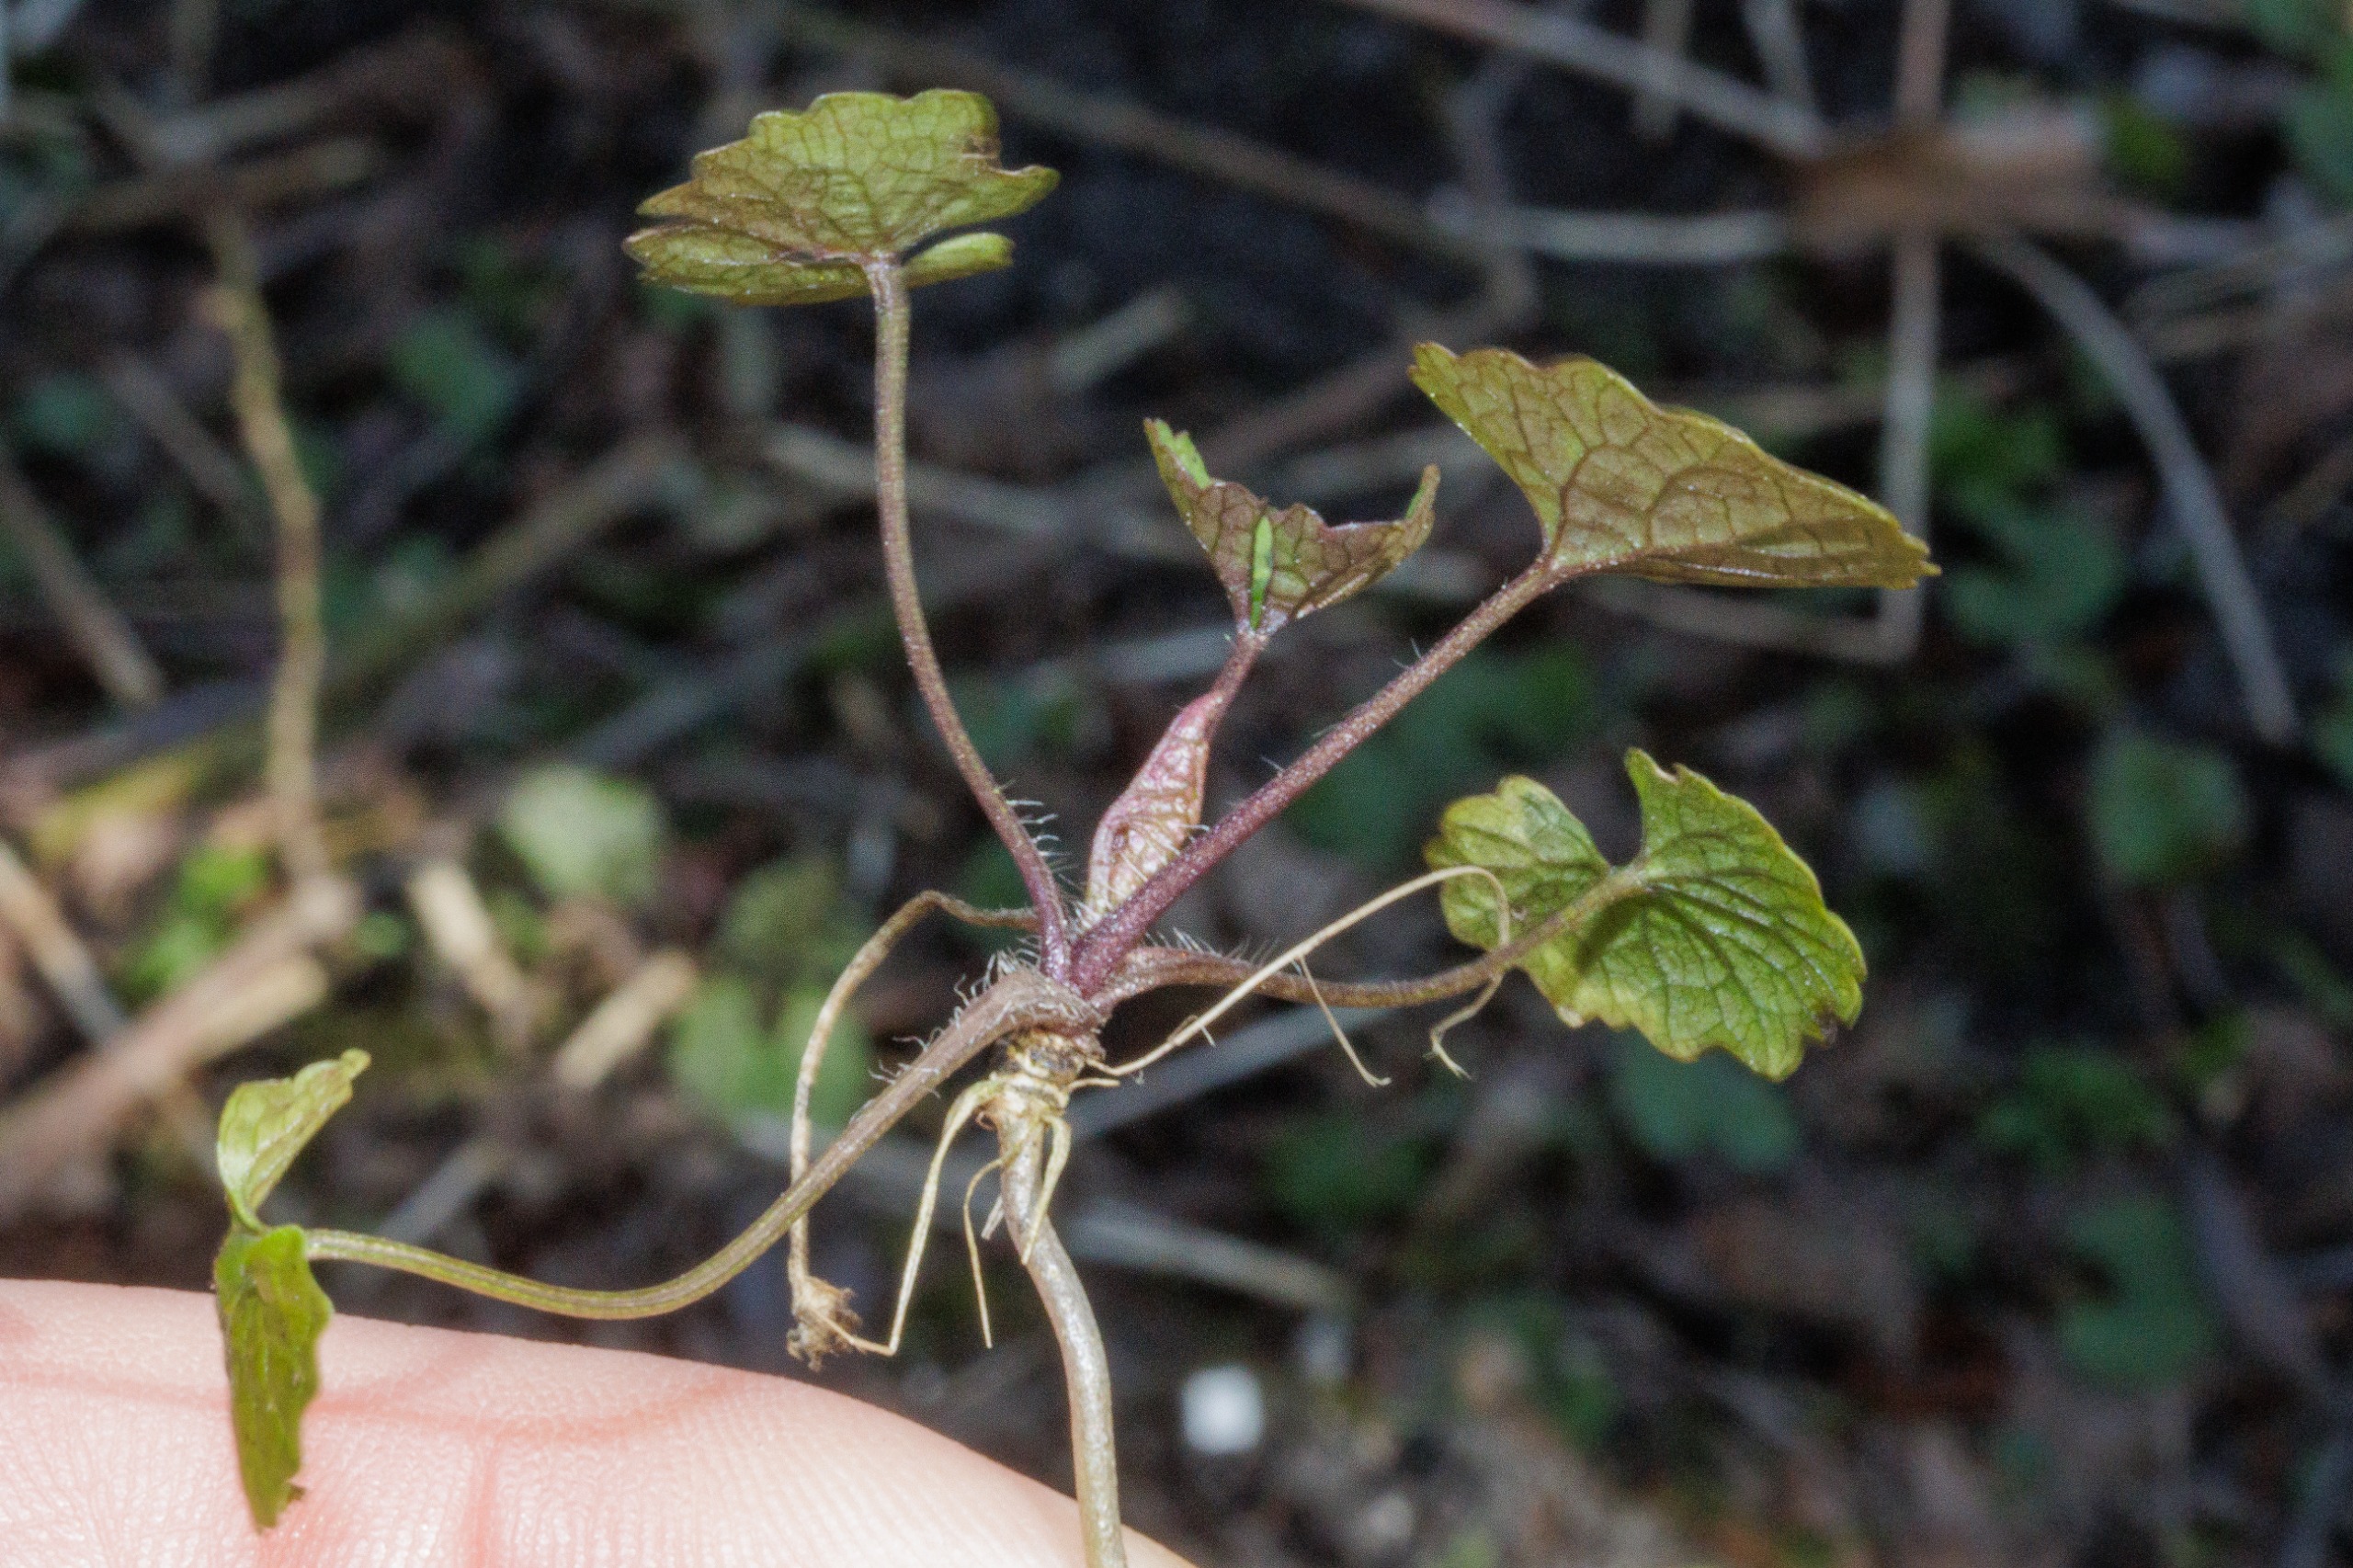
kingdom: Plantae
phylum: Tracheophyta
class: Magnoliopsida
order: Brassicales
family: Brassicaceae
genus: Alliaria
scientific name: Alliaria petiolata
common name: Løgkarse
